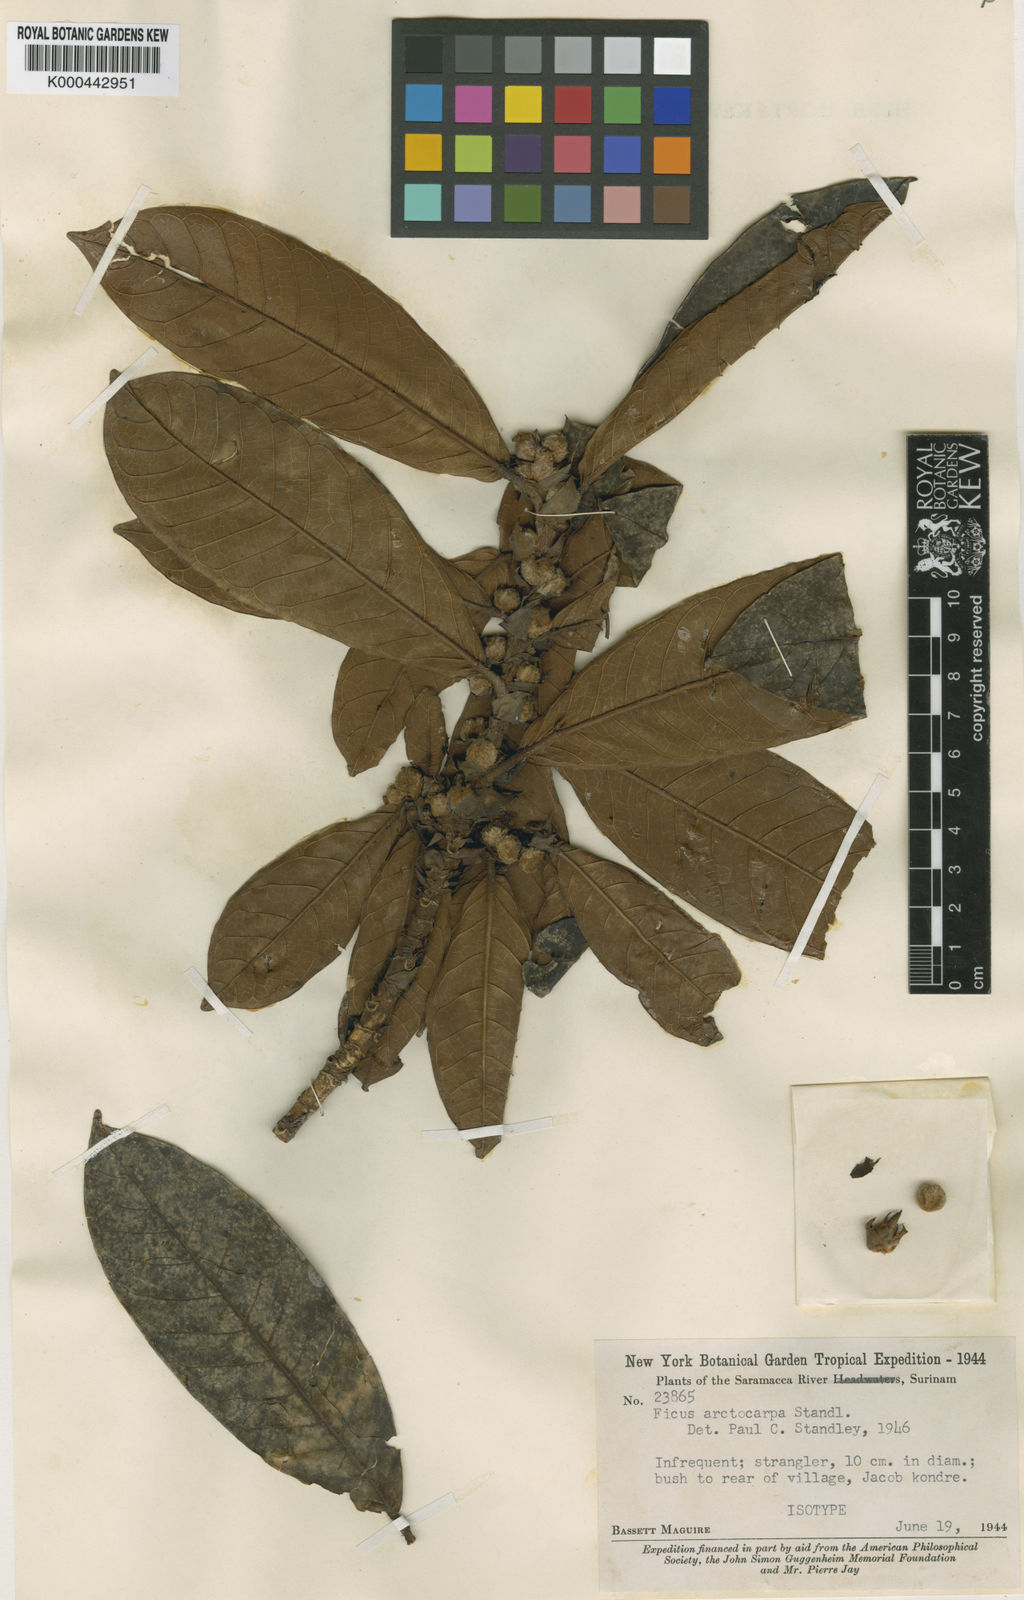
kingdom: Plantae
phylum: Tracheophyta
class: Magnoliopsida
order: Rosales
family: Moraceae
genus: Ficus
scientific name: Ficus trigona
